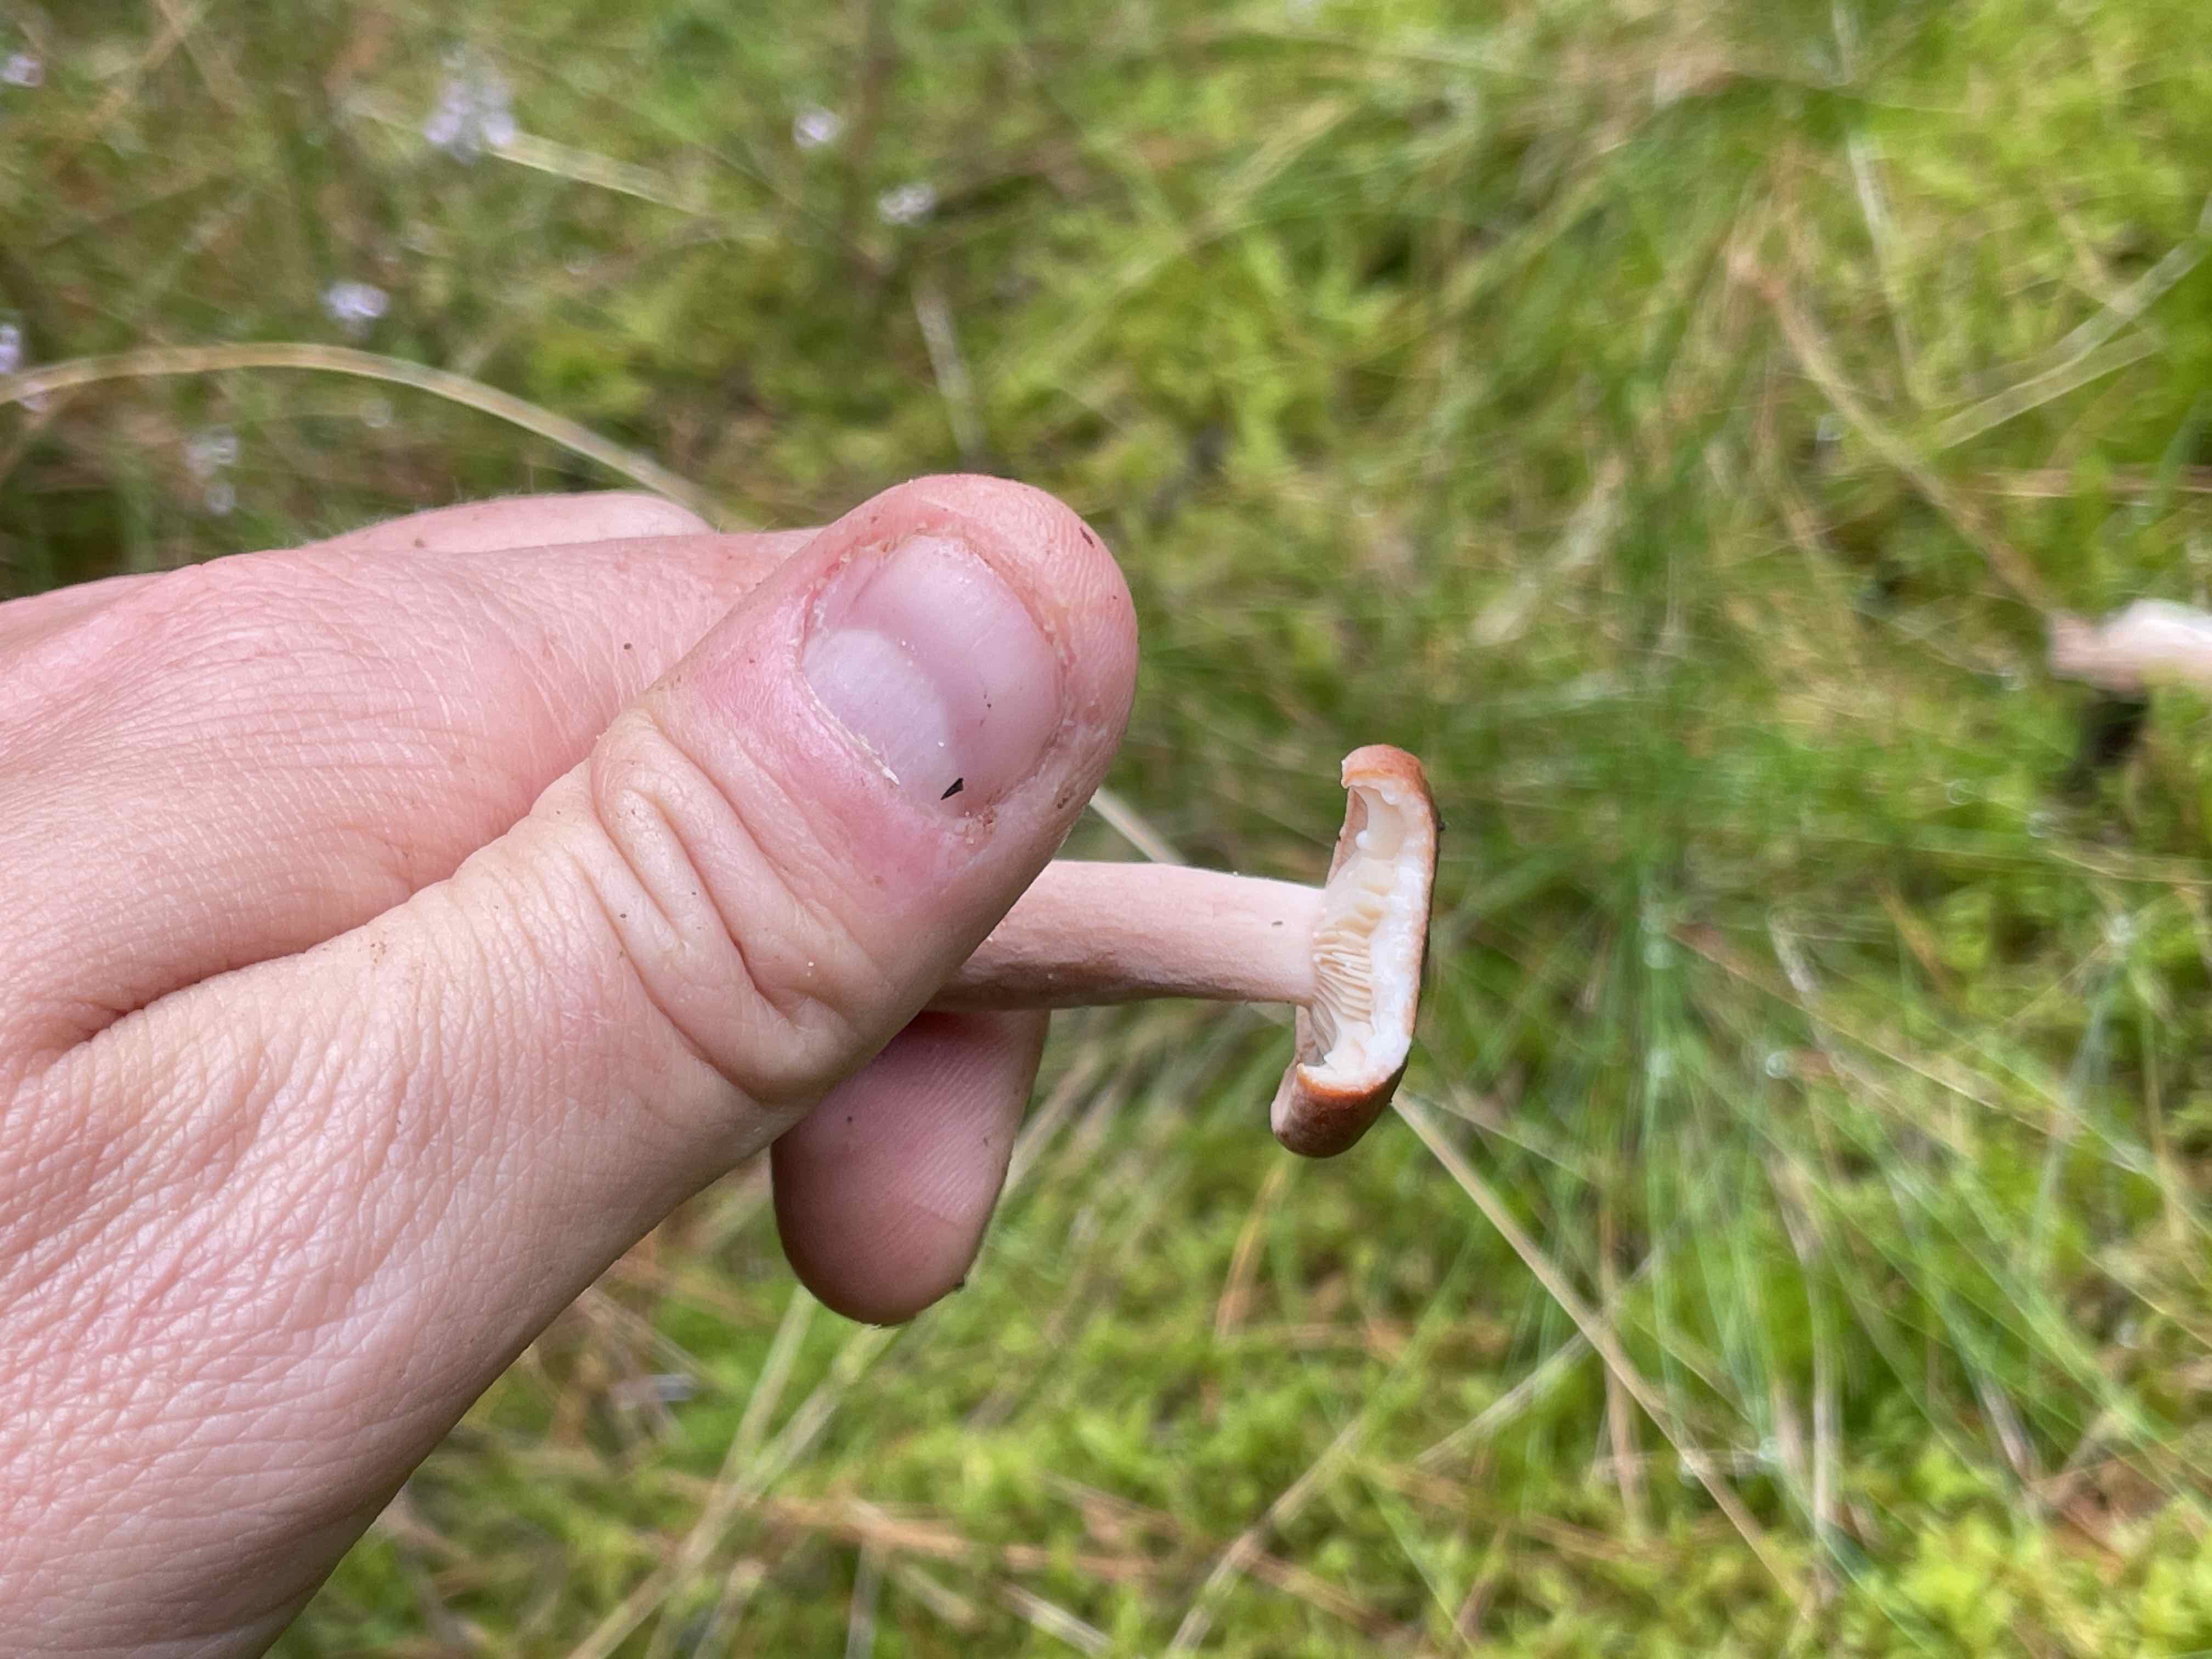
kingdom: Fungi
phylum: Basidiomycota
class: Agaricomycetes
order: Russulales
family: Russulaceae
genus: Lactarius
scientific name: Lactarius helvus
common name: mose-mælkehat
